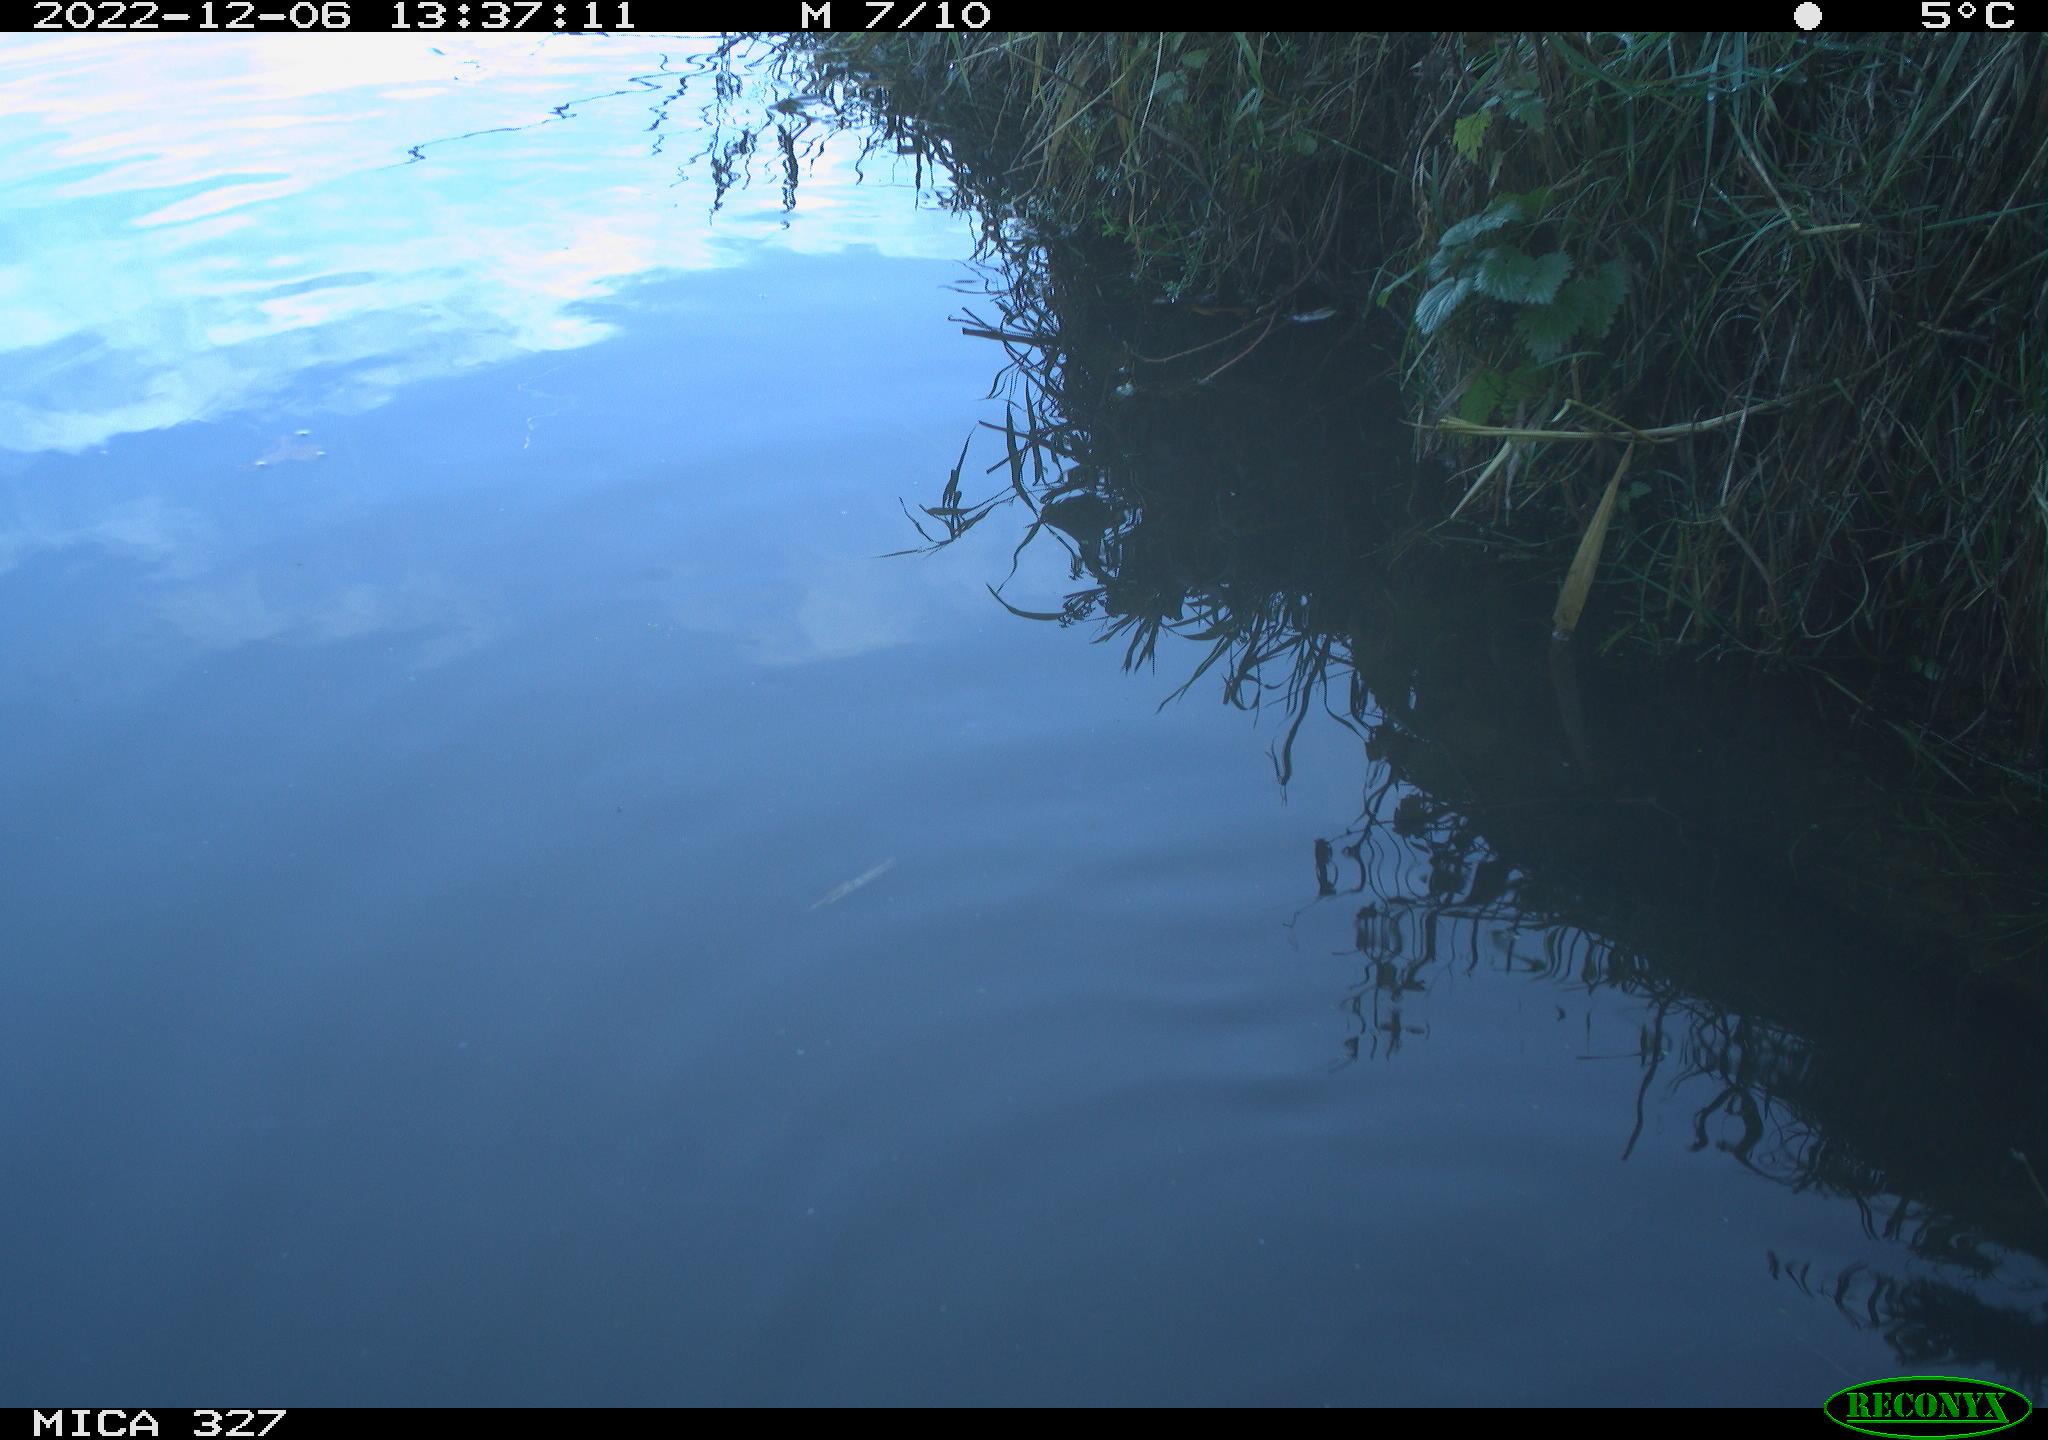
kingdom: Animalia
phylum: Chordata
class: Aves
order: Gruiformes
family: Rallidae
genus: Gallinula
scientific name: Gallinula chloropus
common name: Common moorhen
